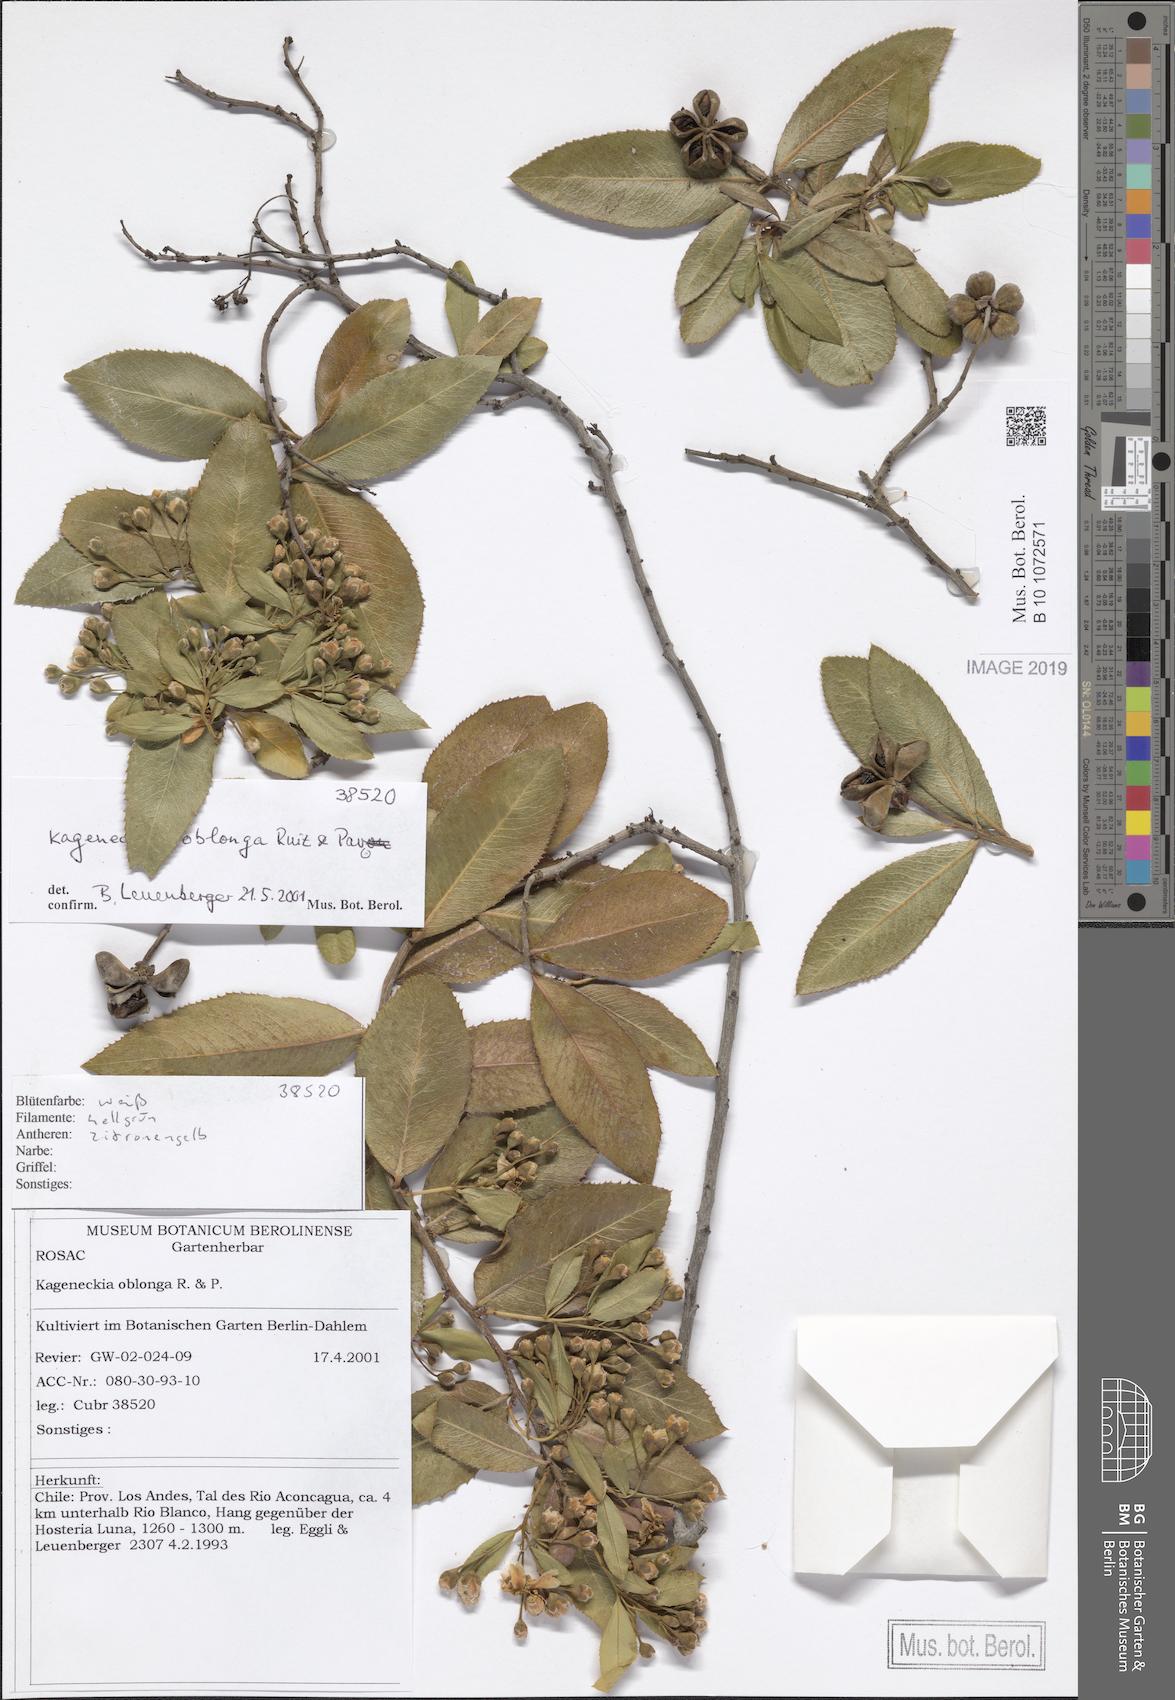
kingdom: Plantae
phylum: Tracheophyta
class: Magnoliopsida
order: Rosales
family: Rosaceae
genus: Kageneckia
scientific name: Kageneckia oblonga
